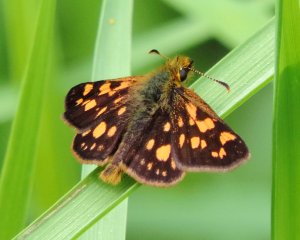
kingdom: Animalia
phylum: Arthropoda
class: Insecta
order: Lepidoptera
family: Hesperiidae
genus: Carterocephalus
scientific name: Carterocephalus palaemon
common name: Chequered Skipper
